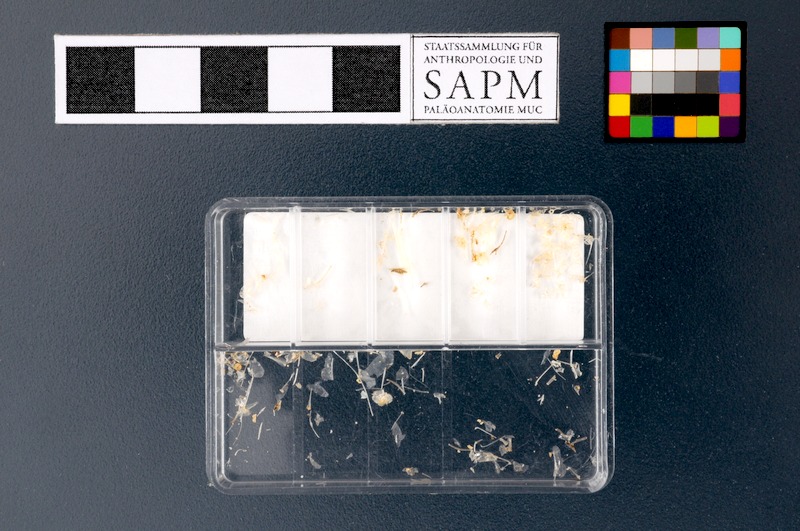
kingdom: Animalia
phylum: Chordata
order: Clupeiformes
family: Clupeidae
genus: Sardinella
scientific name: Sardinella gibbosa
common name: Goldstripe sardinella
